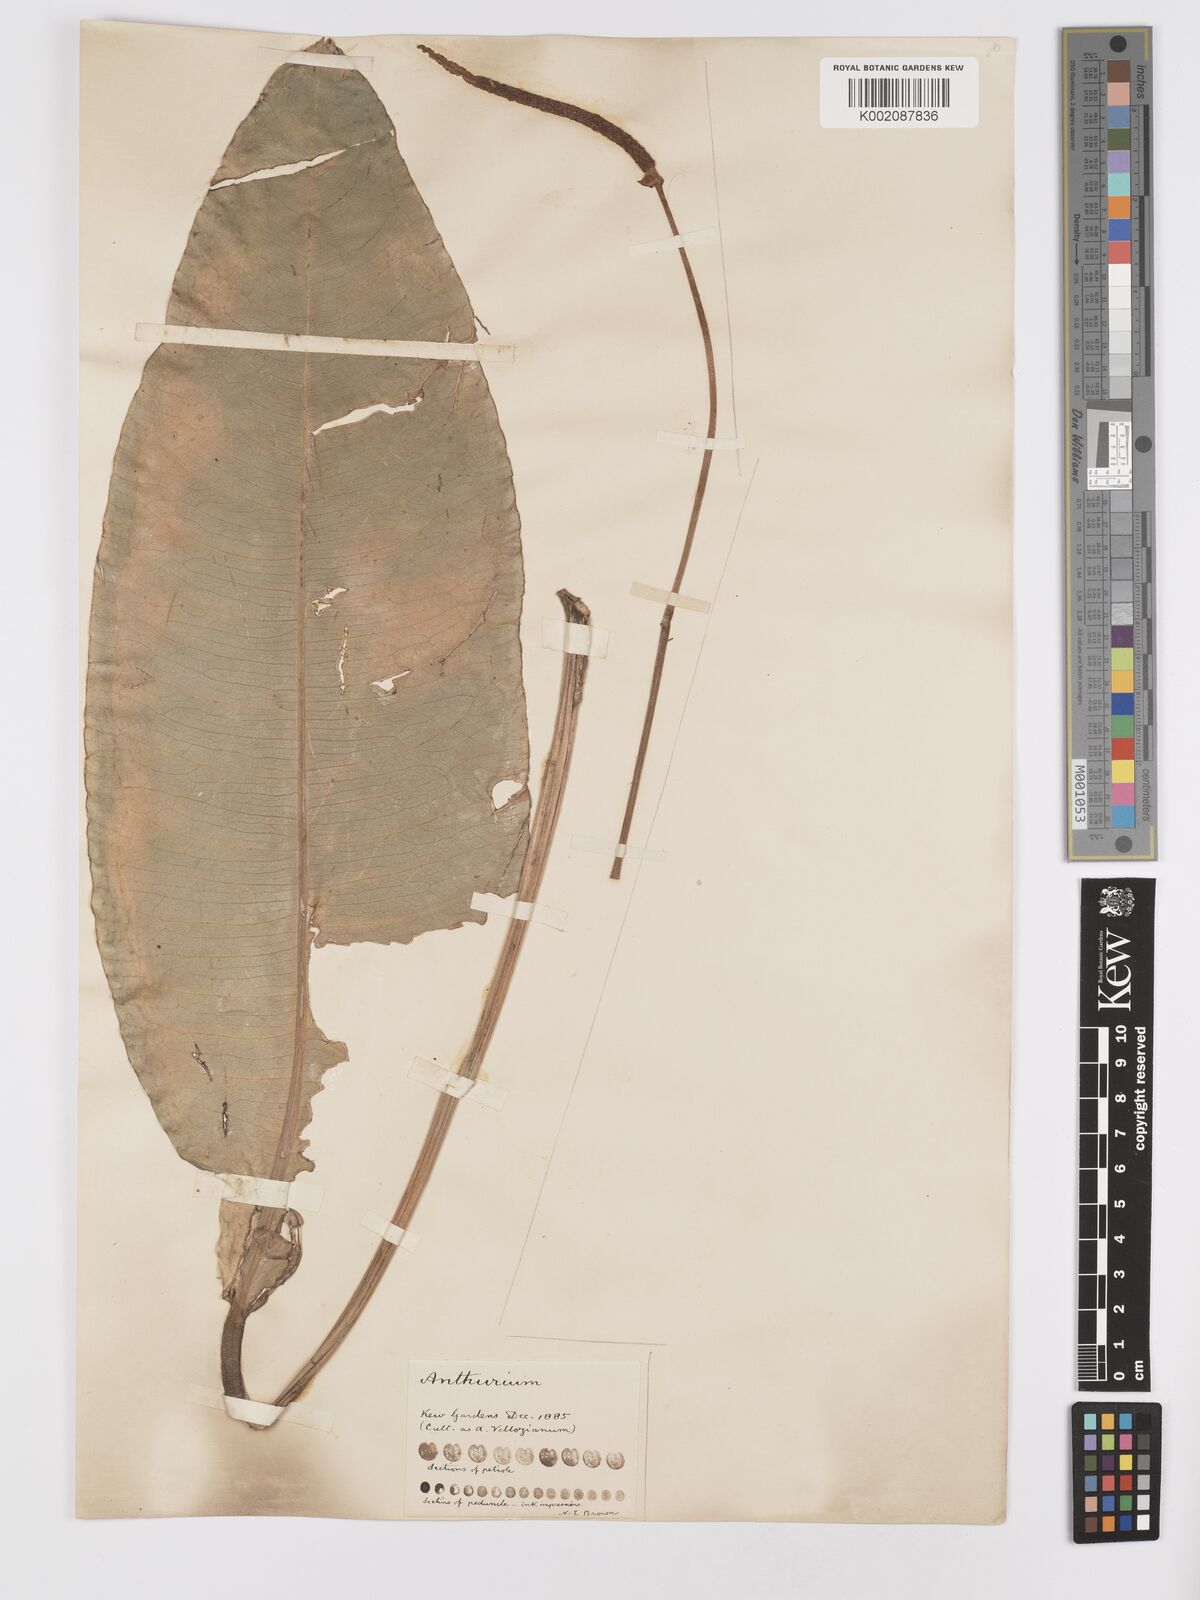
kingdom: Plantae
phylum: Tracheophyta
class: Liliopsida
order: Alismatales
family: Araceae
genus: Anthurium
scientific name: Anthurium parasiticum
